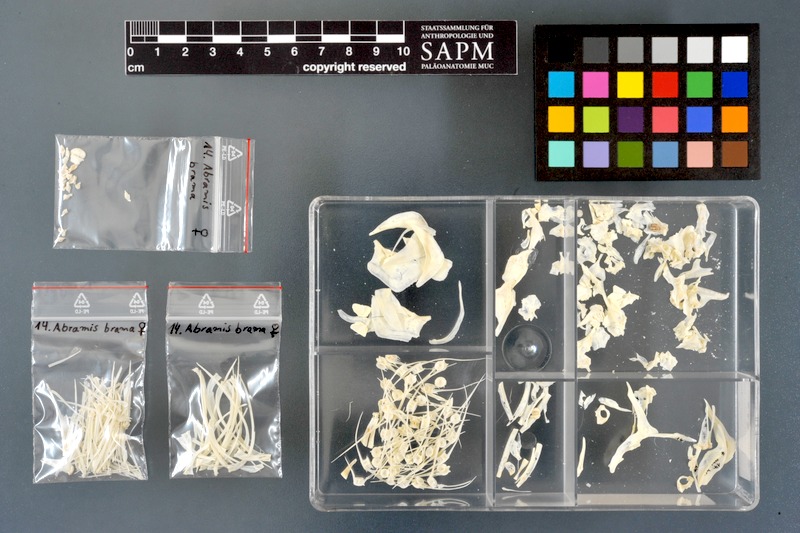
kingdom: Animalia
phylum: Chordata
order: Cypriniformes
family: Cyprinidae
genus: Abramis
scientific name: Abramis brama
